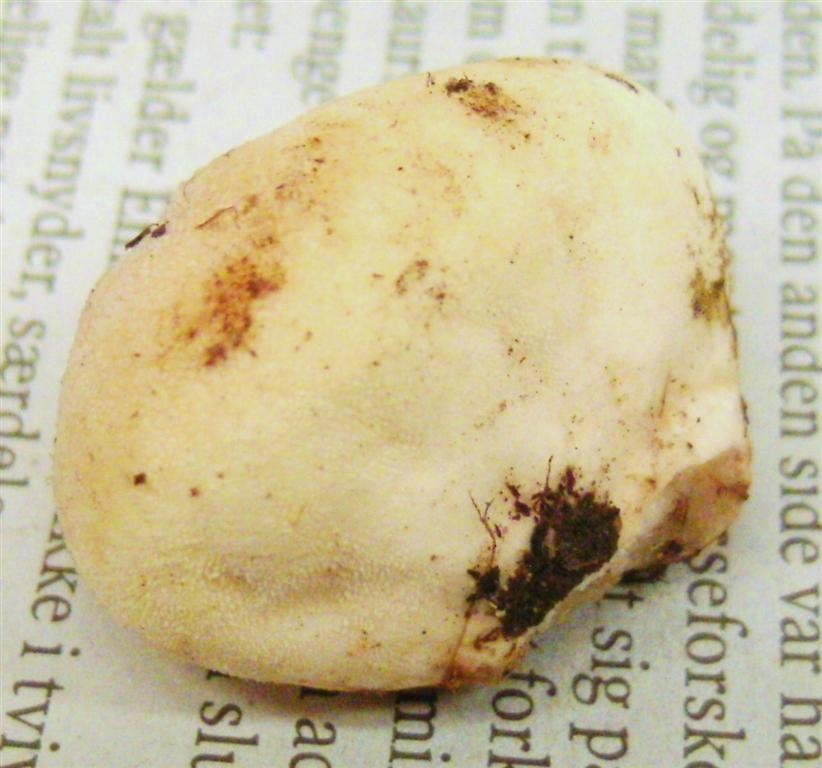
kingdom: Fungi
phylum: Basidiomycota
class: Agaricomycetes
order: Agaricales
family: Lycoperdaceae
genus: Lycoperdon
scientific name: Lycoperdon pratense
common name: flad støvbold
